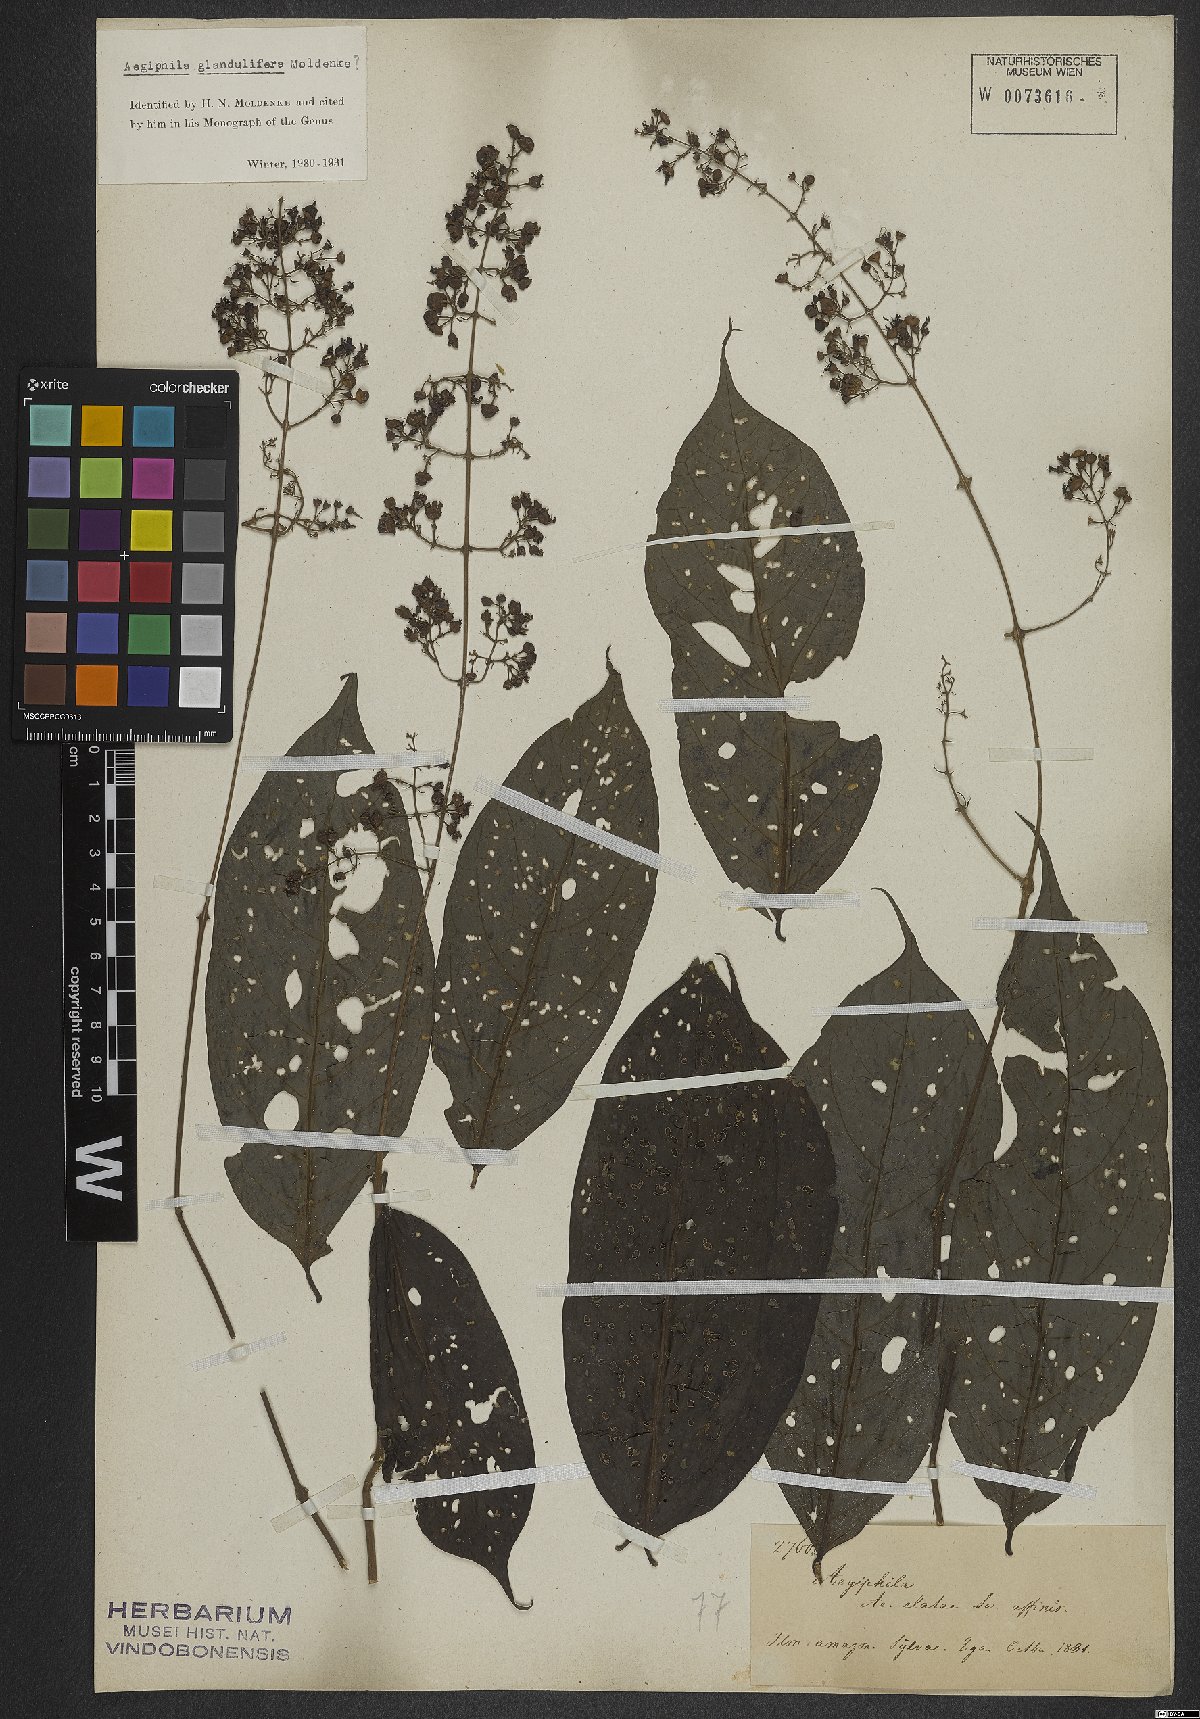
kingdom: Plantae
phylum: Tracheophyta
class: Magnoliopsida
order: Lamiales
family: Lamiaceae
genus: Aegiphila
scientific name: Aegiphila panamensis
